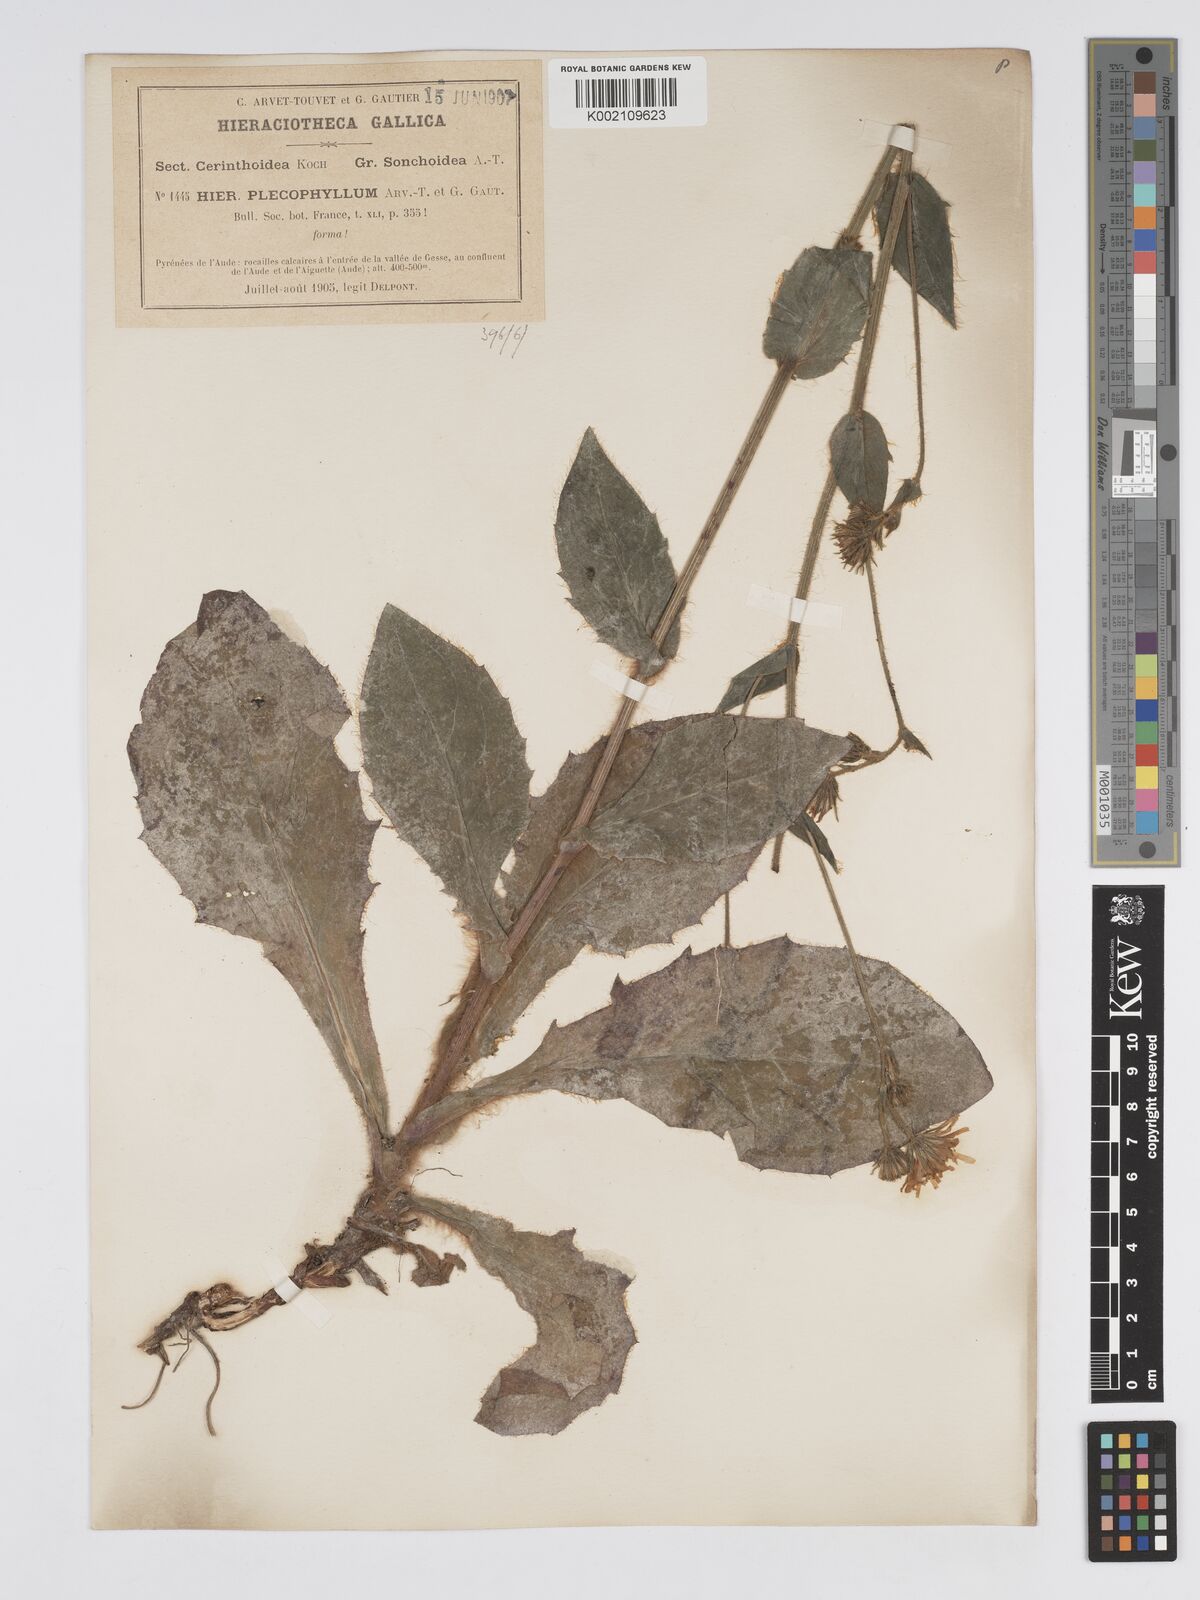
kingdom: Plantae
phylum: Tracheophyta
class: Magnoliopsida
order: Asterales
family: Asteraceae
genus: Hieracium
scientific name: Hieracium compositum
